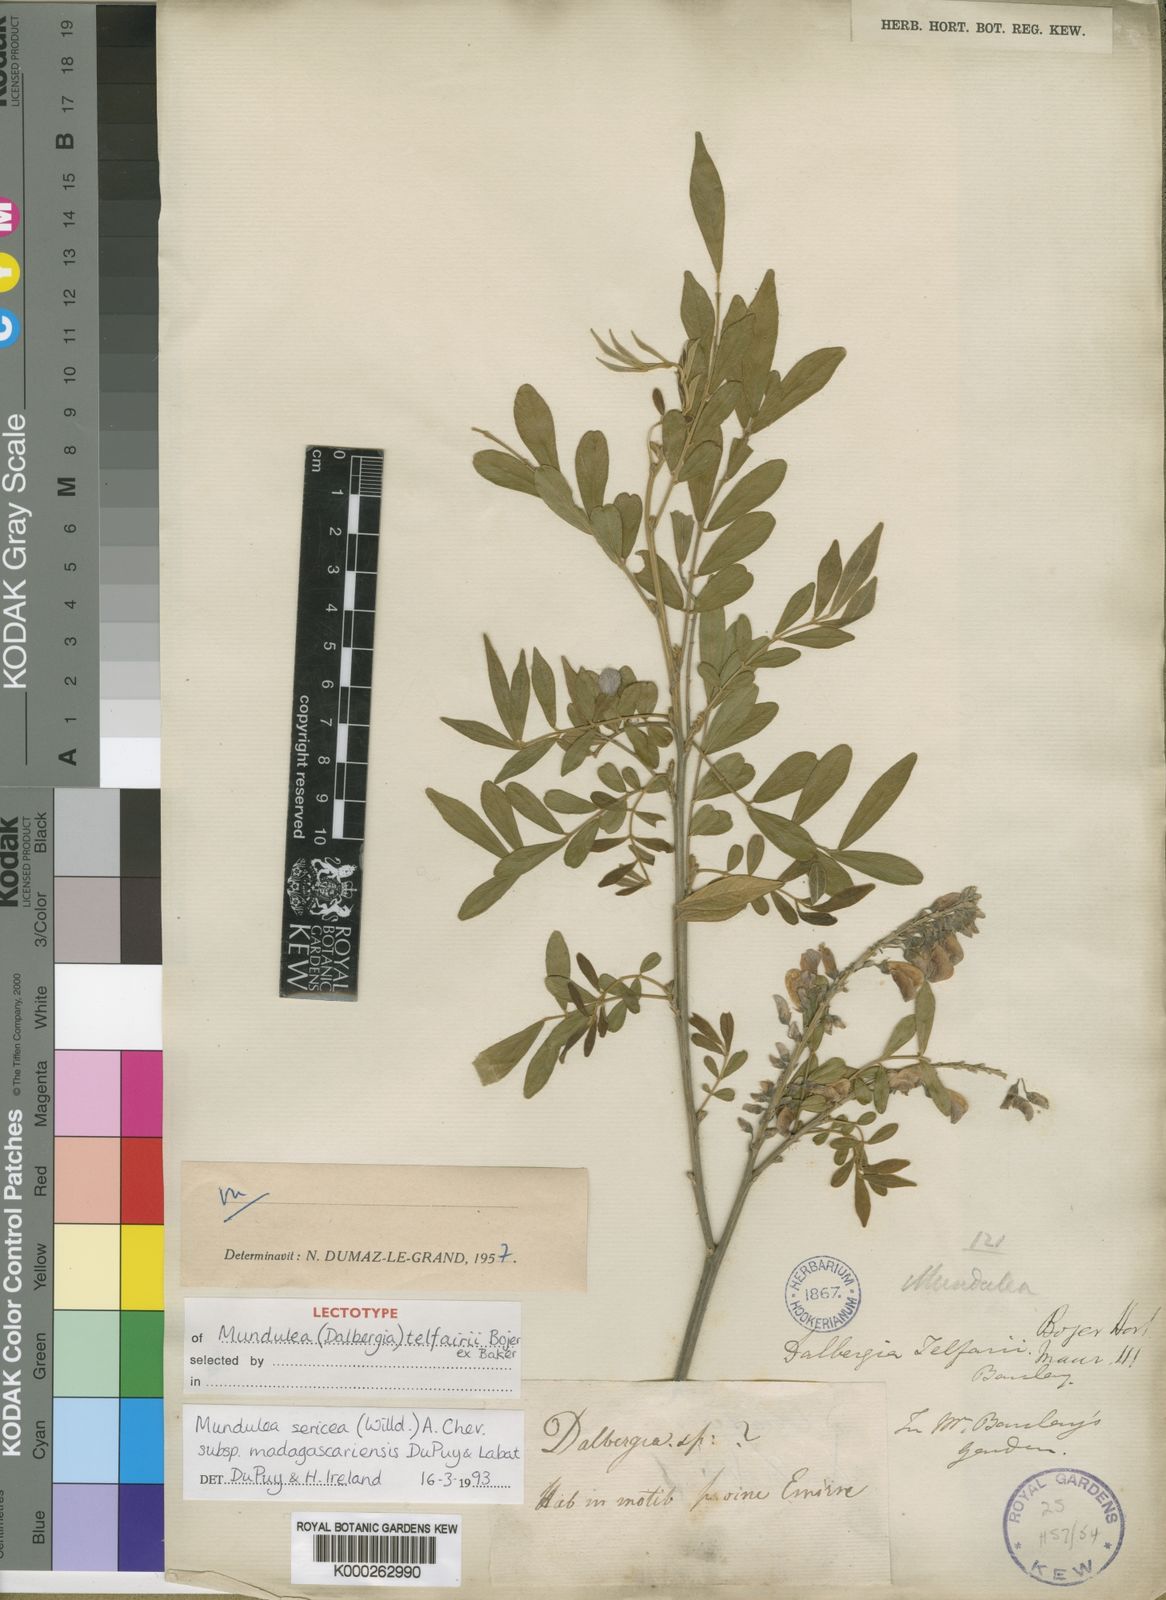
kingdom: Plantae
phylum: Tracheophyta
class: Magnoliopsida
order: Fabales
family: Fabaceae
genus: Mundulea
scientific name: Mundulea sericea
